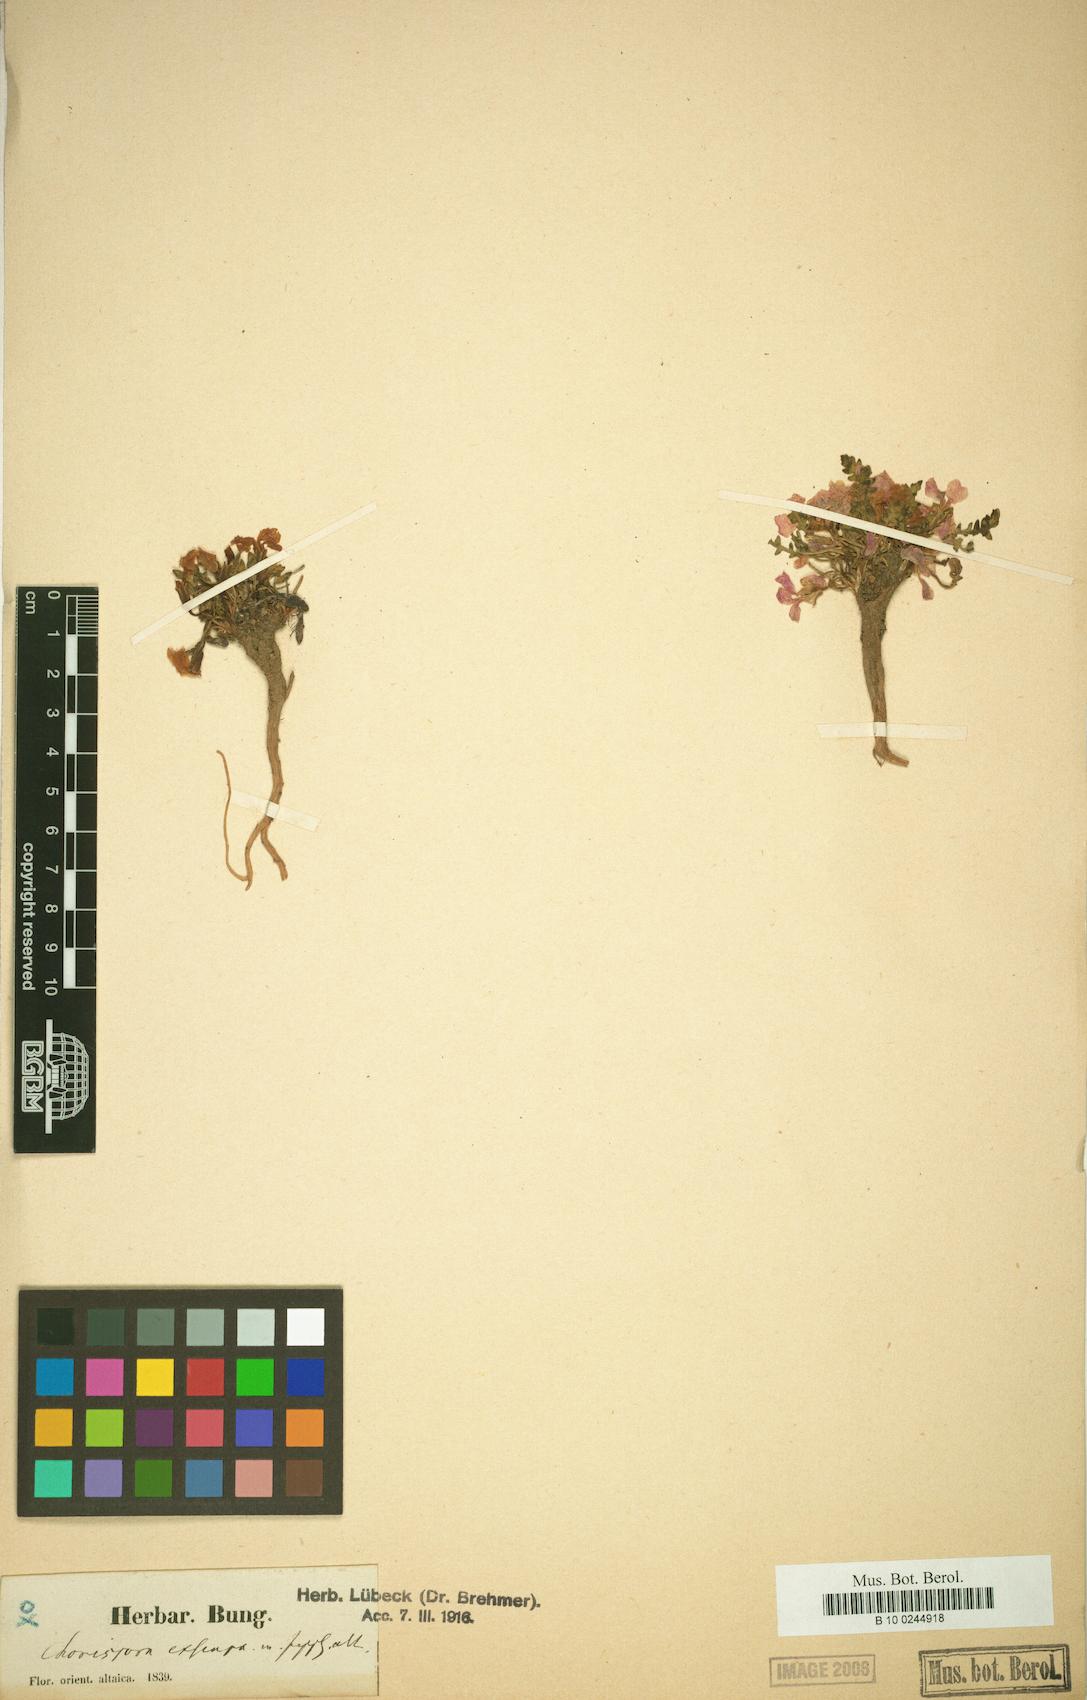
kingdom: Plantae
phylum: Tracheophyta
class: Magnoliopsida
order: Brassicales
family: Brassicaceae
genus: Leiospora
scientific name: Leiospora exscapa
